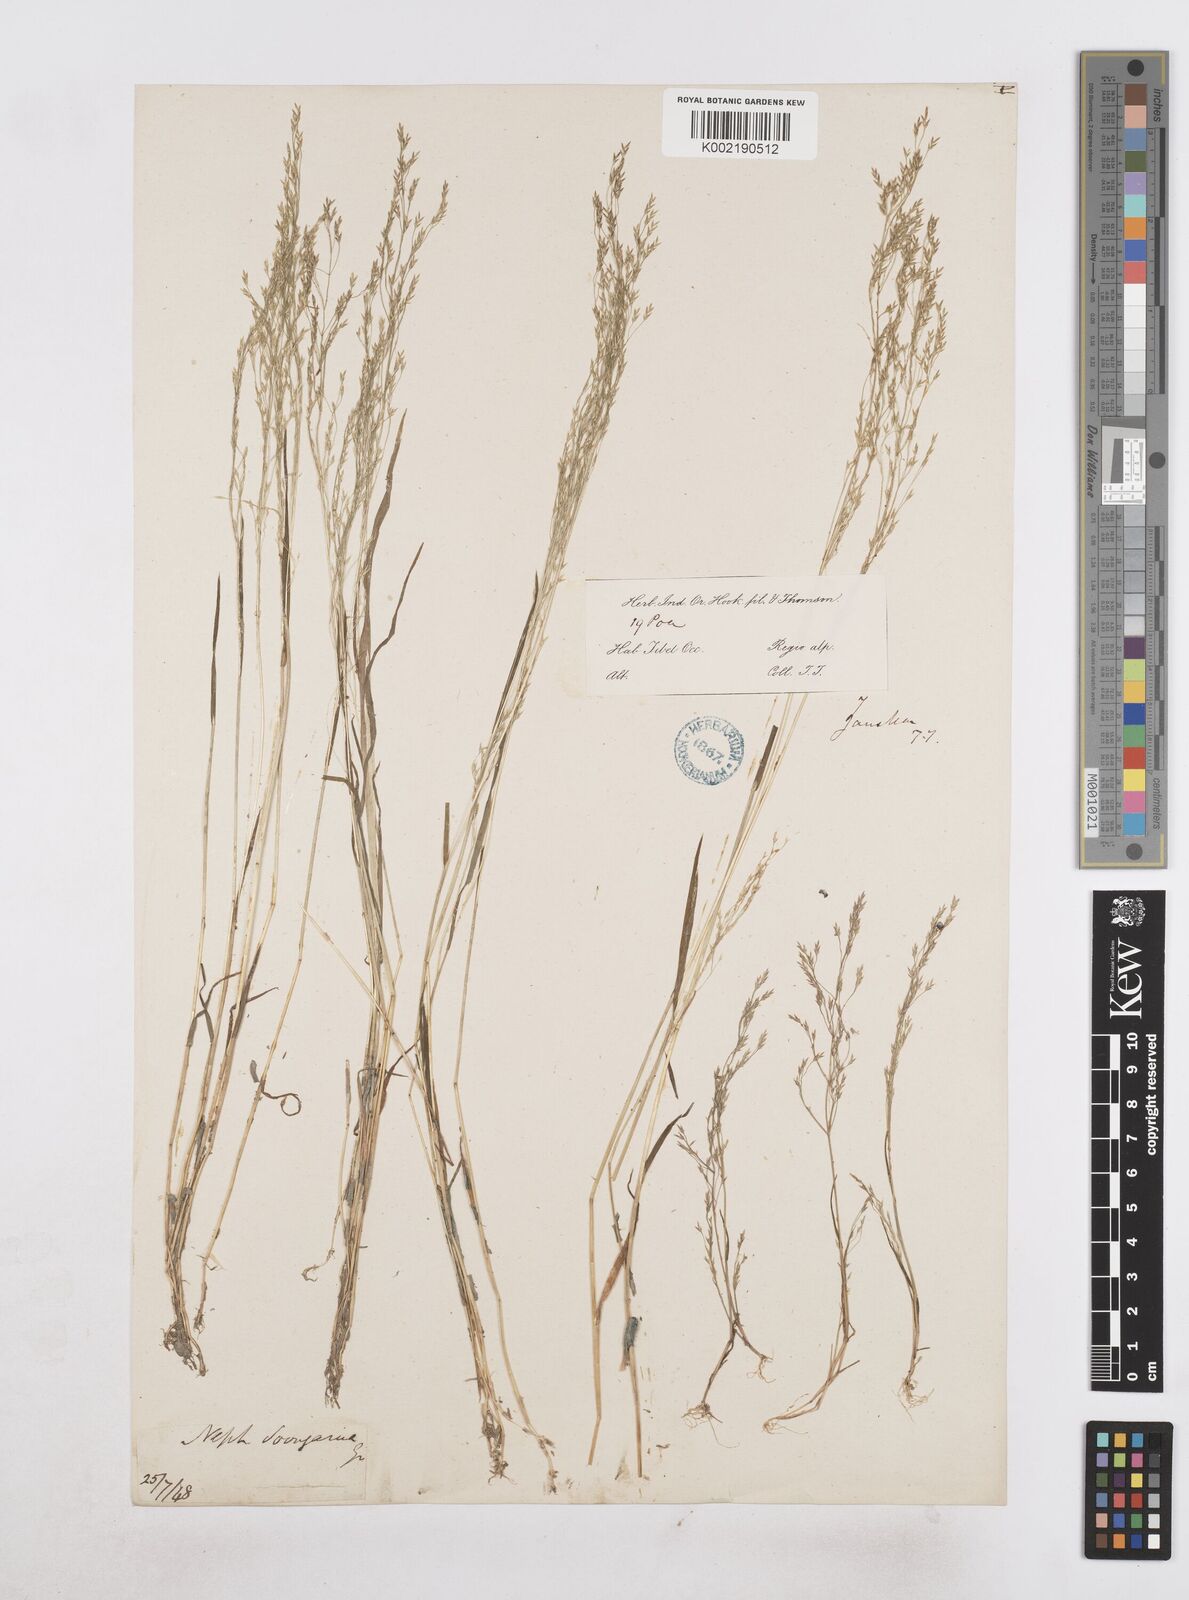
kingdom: Plantae
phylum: Tracheophyta
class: Liliopsida
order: Poales
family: Poaceae
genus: Poa
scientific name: Poa diaphora
